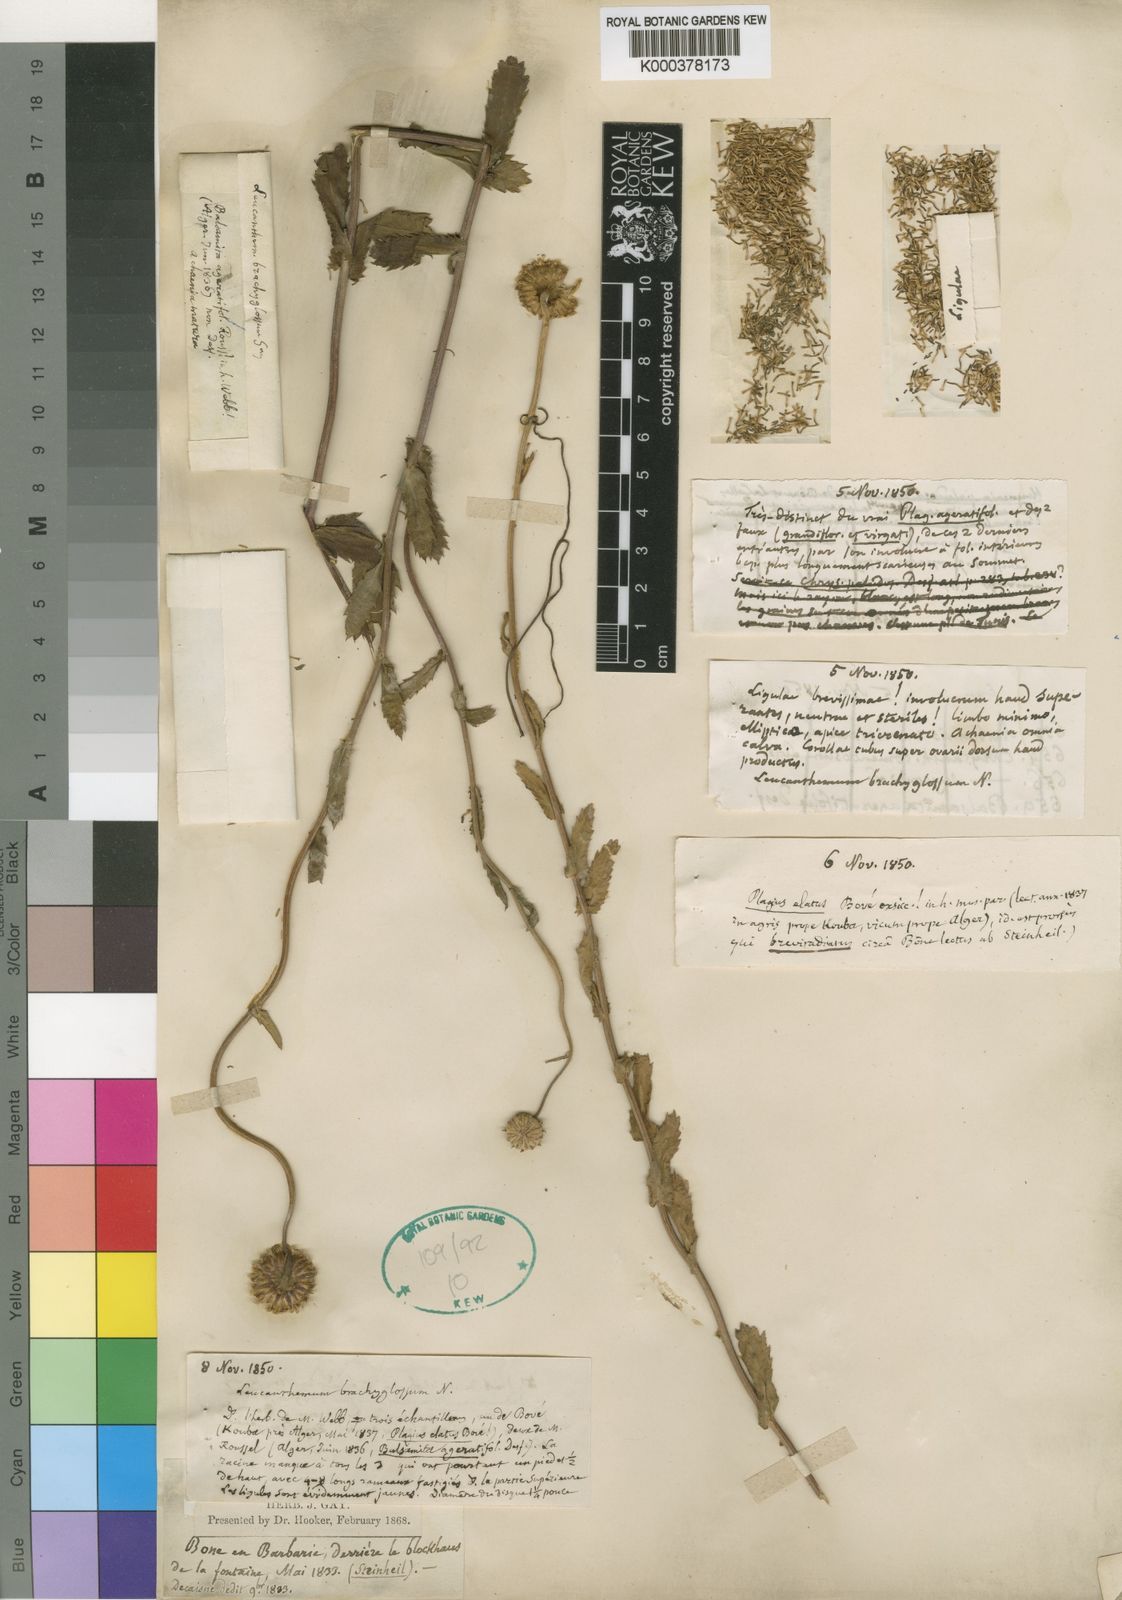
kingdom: Plantae
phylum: Tracheophyta
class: Magnoliopsida
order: Asterales
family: Asteraceae
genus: Leucanthemum
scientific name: Leucanthemum
